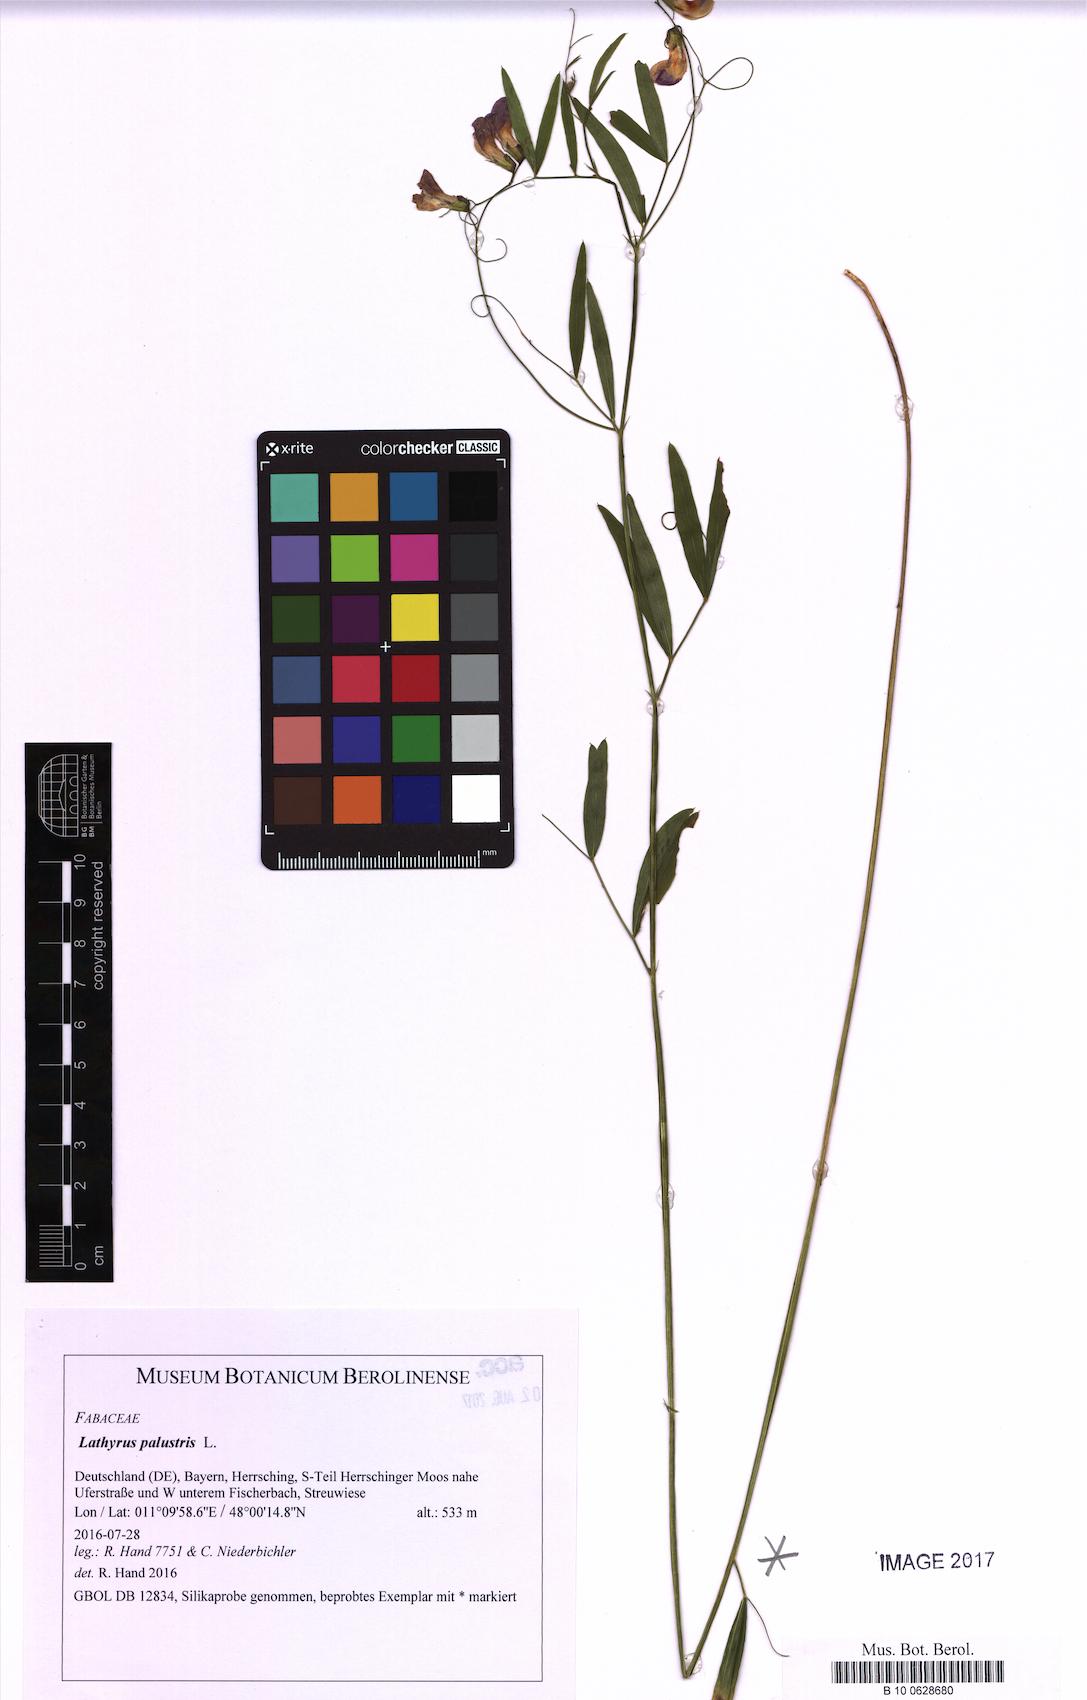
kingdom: Plantae
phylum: Tracheophyta
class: Magnoliopsida
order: Fabales
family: Fabaceae
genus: Lathyrus
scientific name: Lathyrus palustris
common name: Marsh pea
